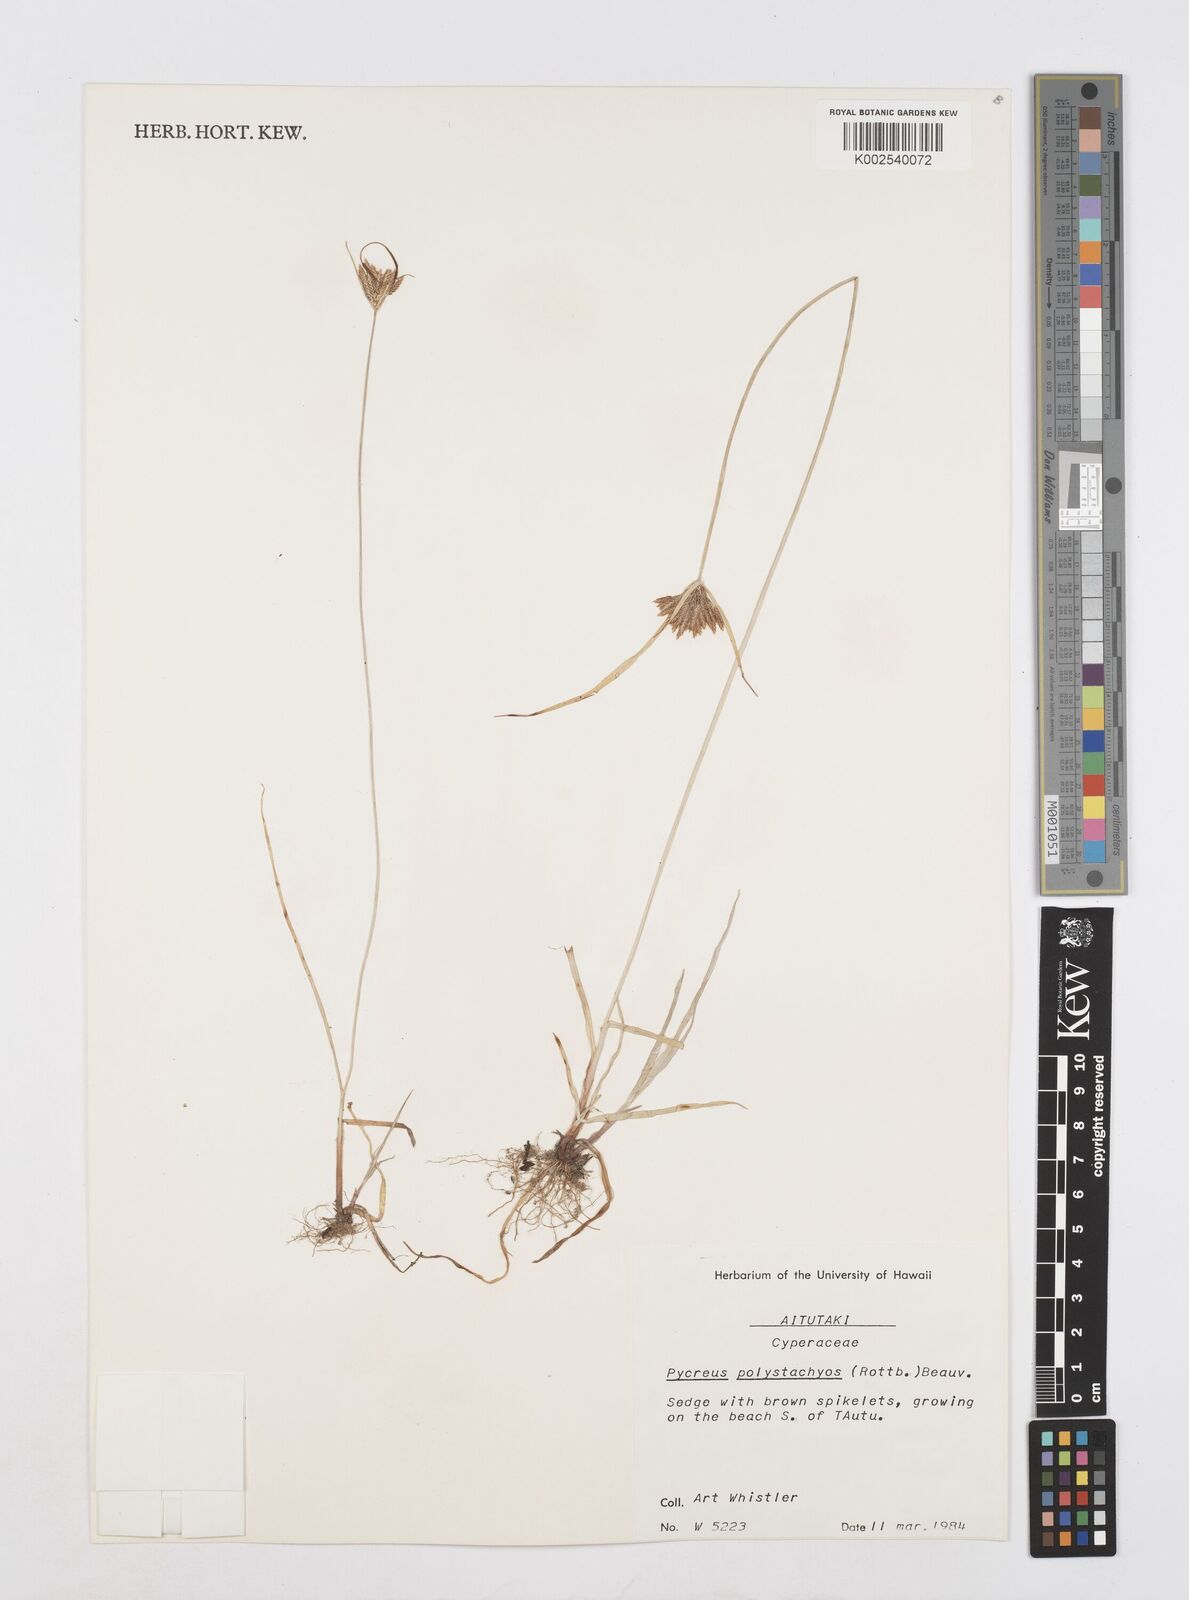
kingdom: Plantae
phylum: Tracheophyta
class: Liliopsida
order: Poales
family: Cyperaceae
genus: Cyperus
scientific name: Cyperus polystachyos
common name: Bunchy flat sedge
